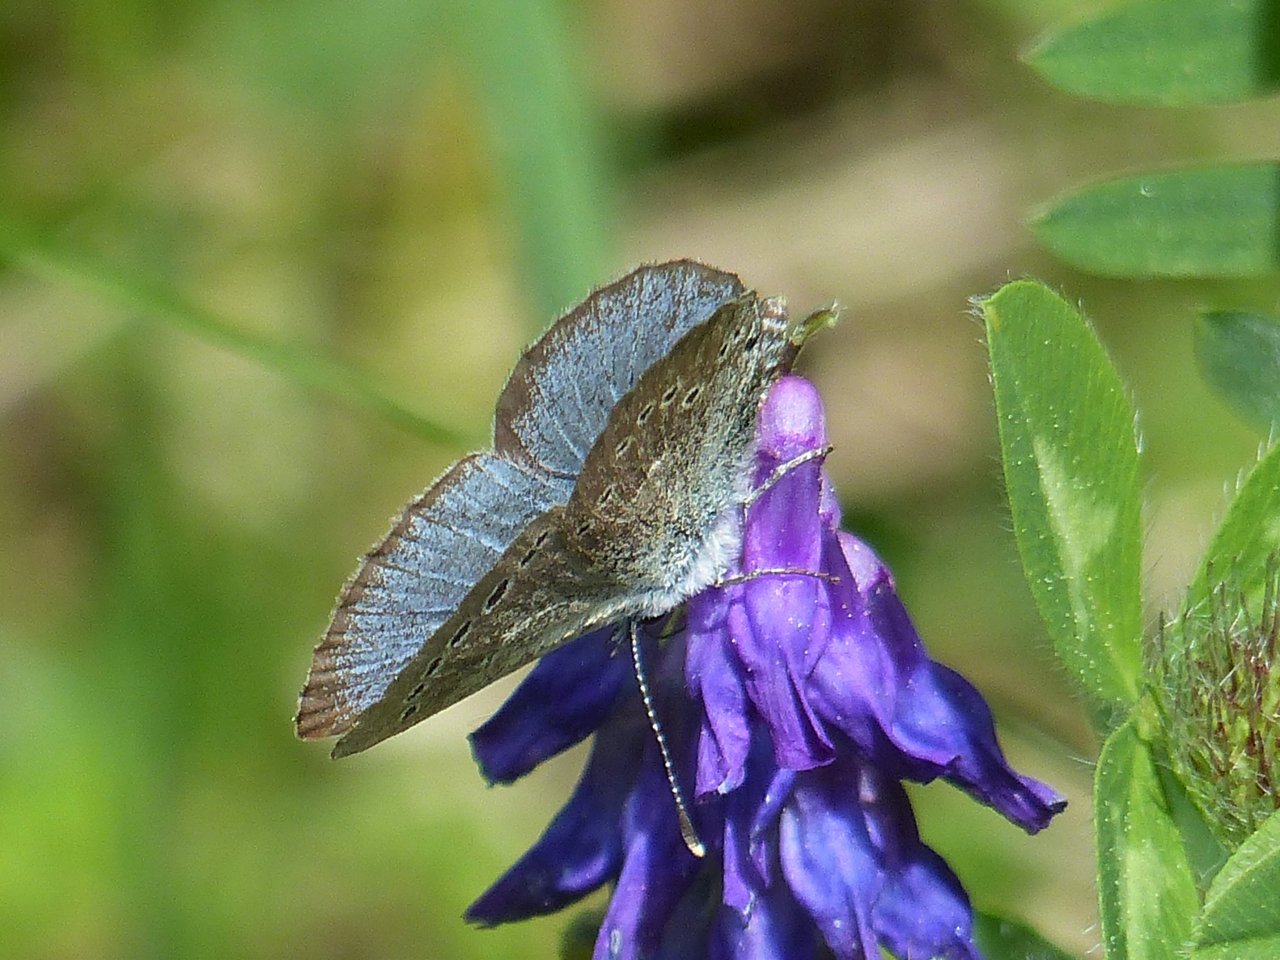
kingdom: Animalia
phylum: Arthropoda
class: Insecta
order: Lepidoptera
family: Lycaenidae
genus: Glaucopsyche
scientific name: Glaucopsyche lygdamus
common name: Silvery Blue
